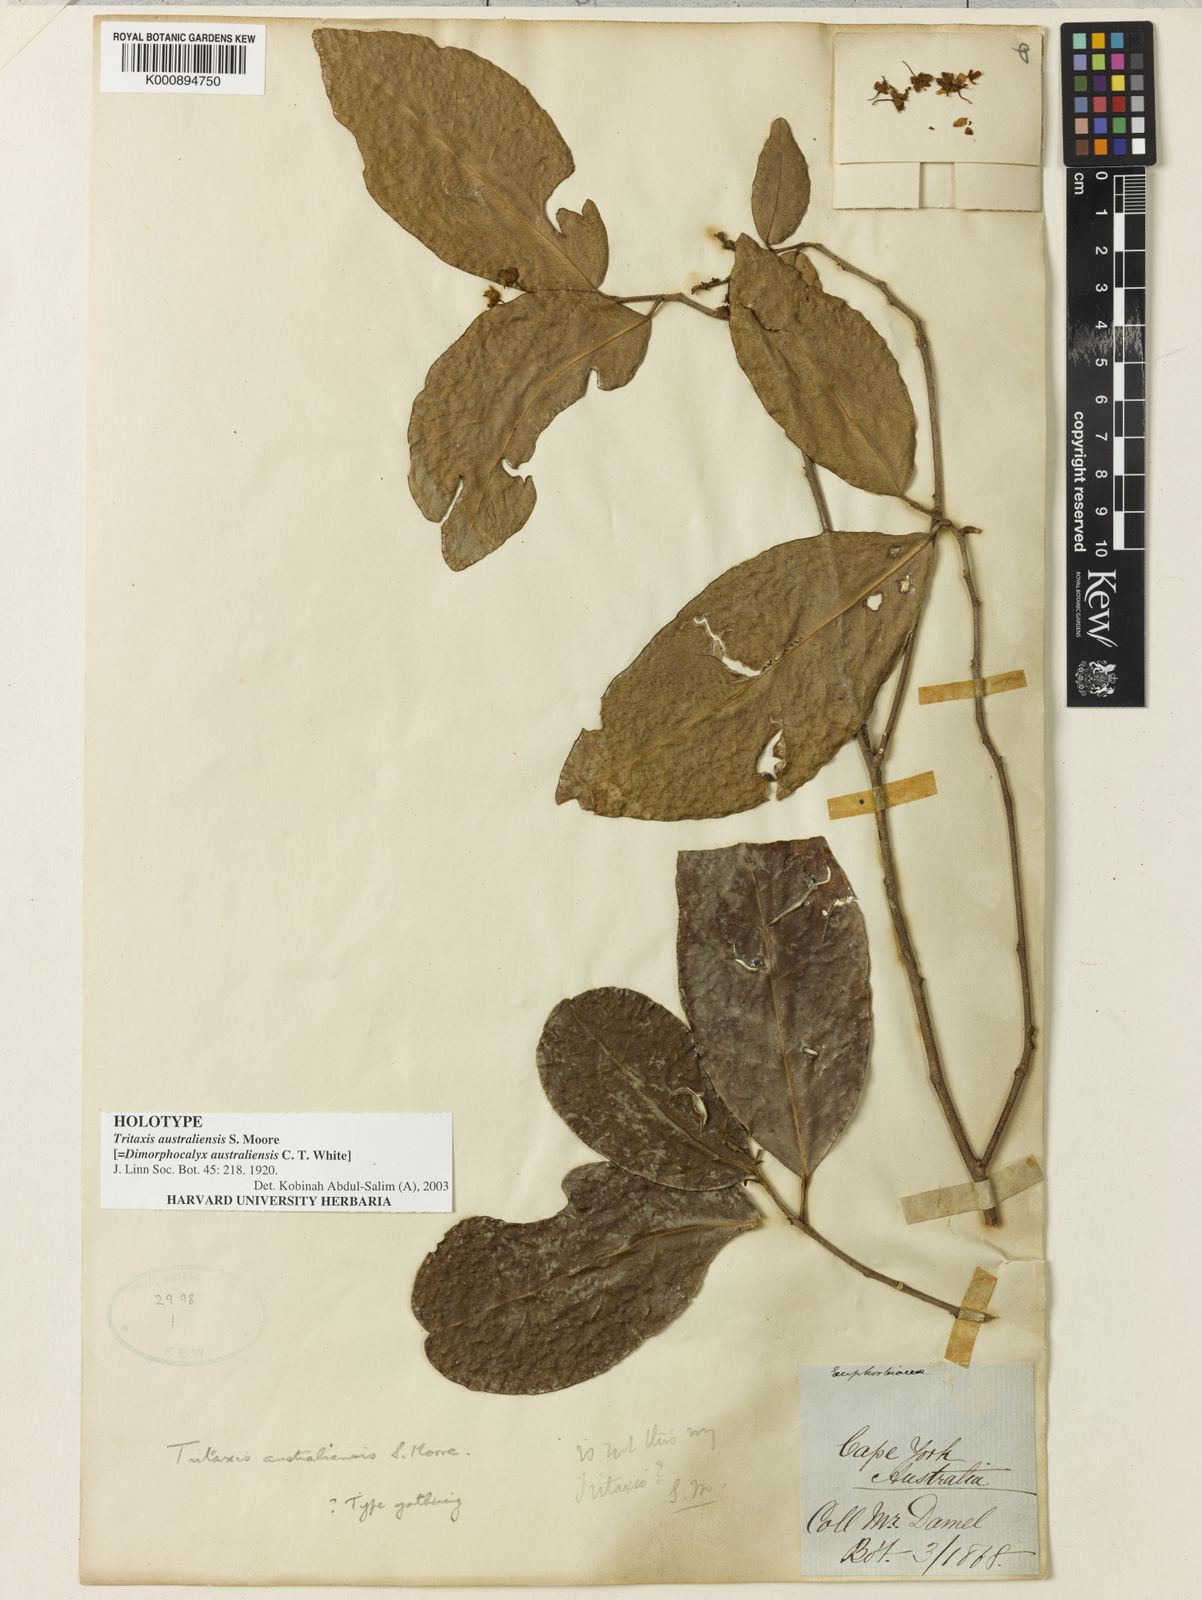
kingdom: Plantae
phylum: Tracheophyta
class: Magnoliopsida
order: Malpighiales
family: Euphorbiaceae
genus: Tritaxis
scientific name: Tritaxis australiensis
